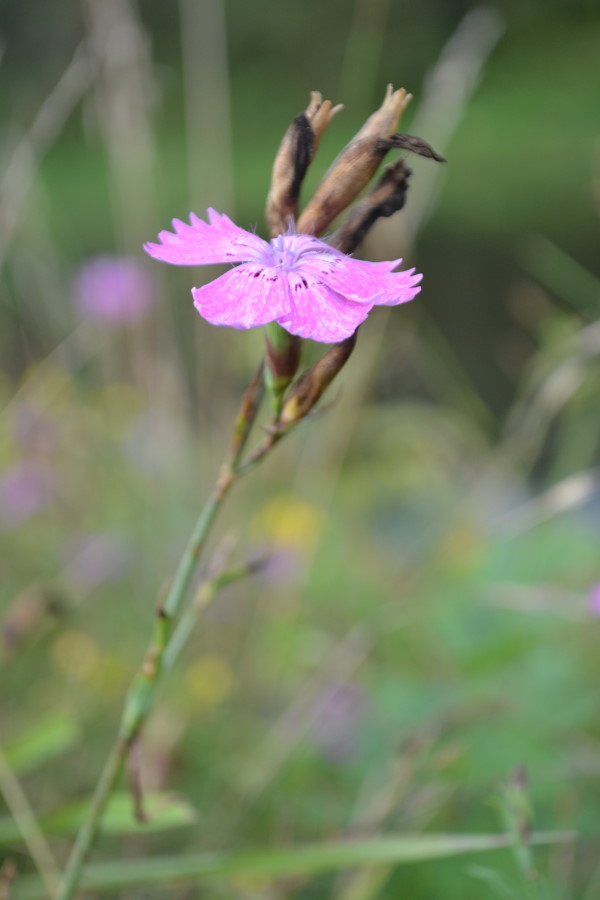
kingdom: Plantae
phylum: Tracheophyta
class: Magnoliopsida
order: Caryophyllales
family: Caryophyllaceae
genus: Dianthus
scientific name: Dianthus chinensis
